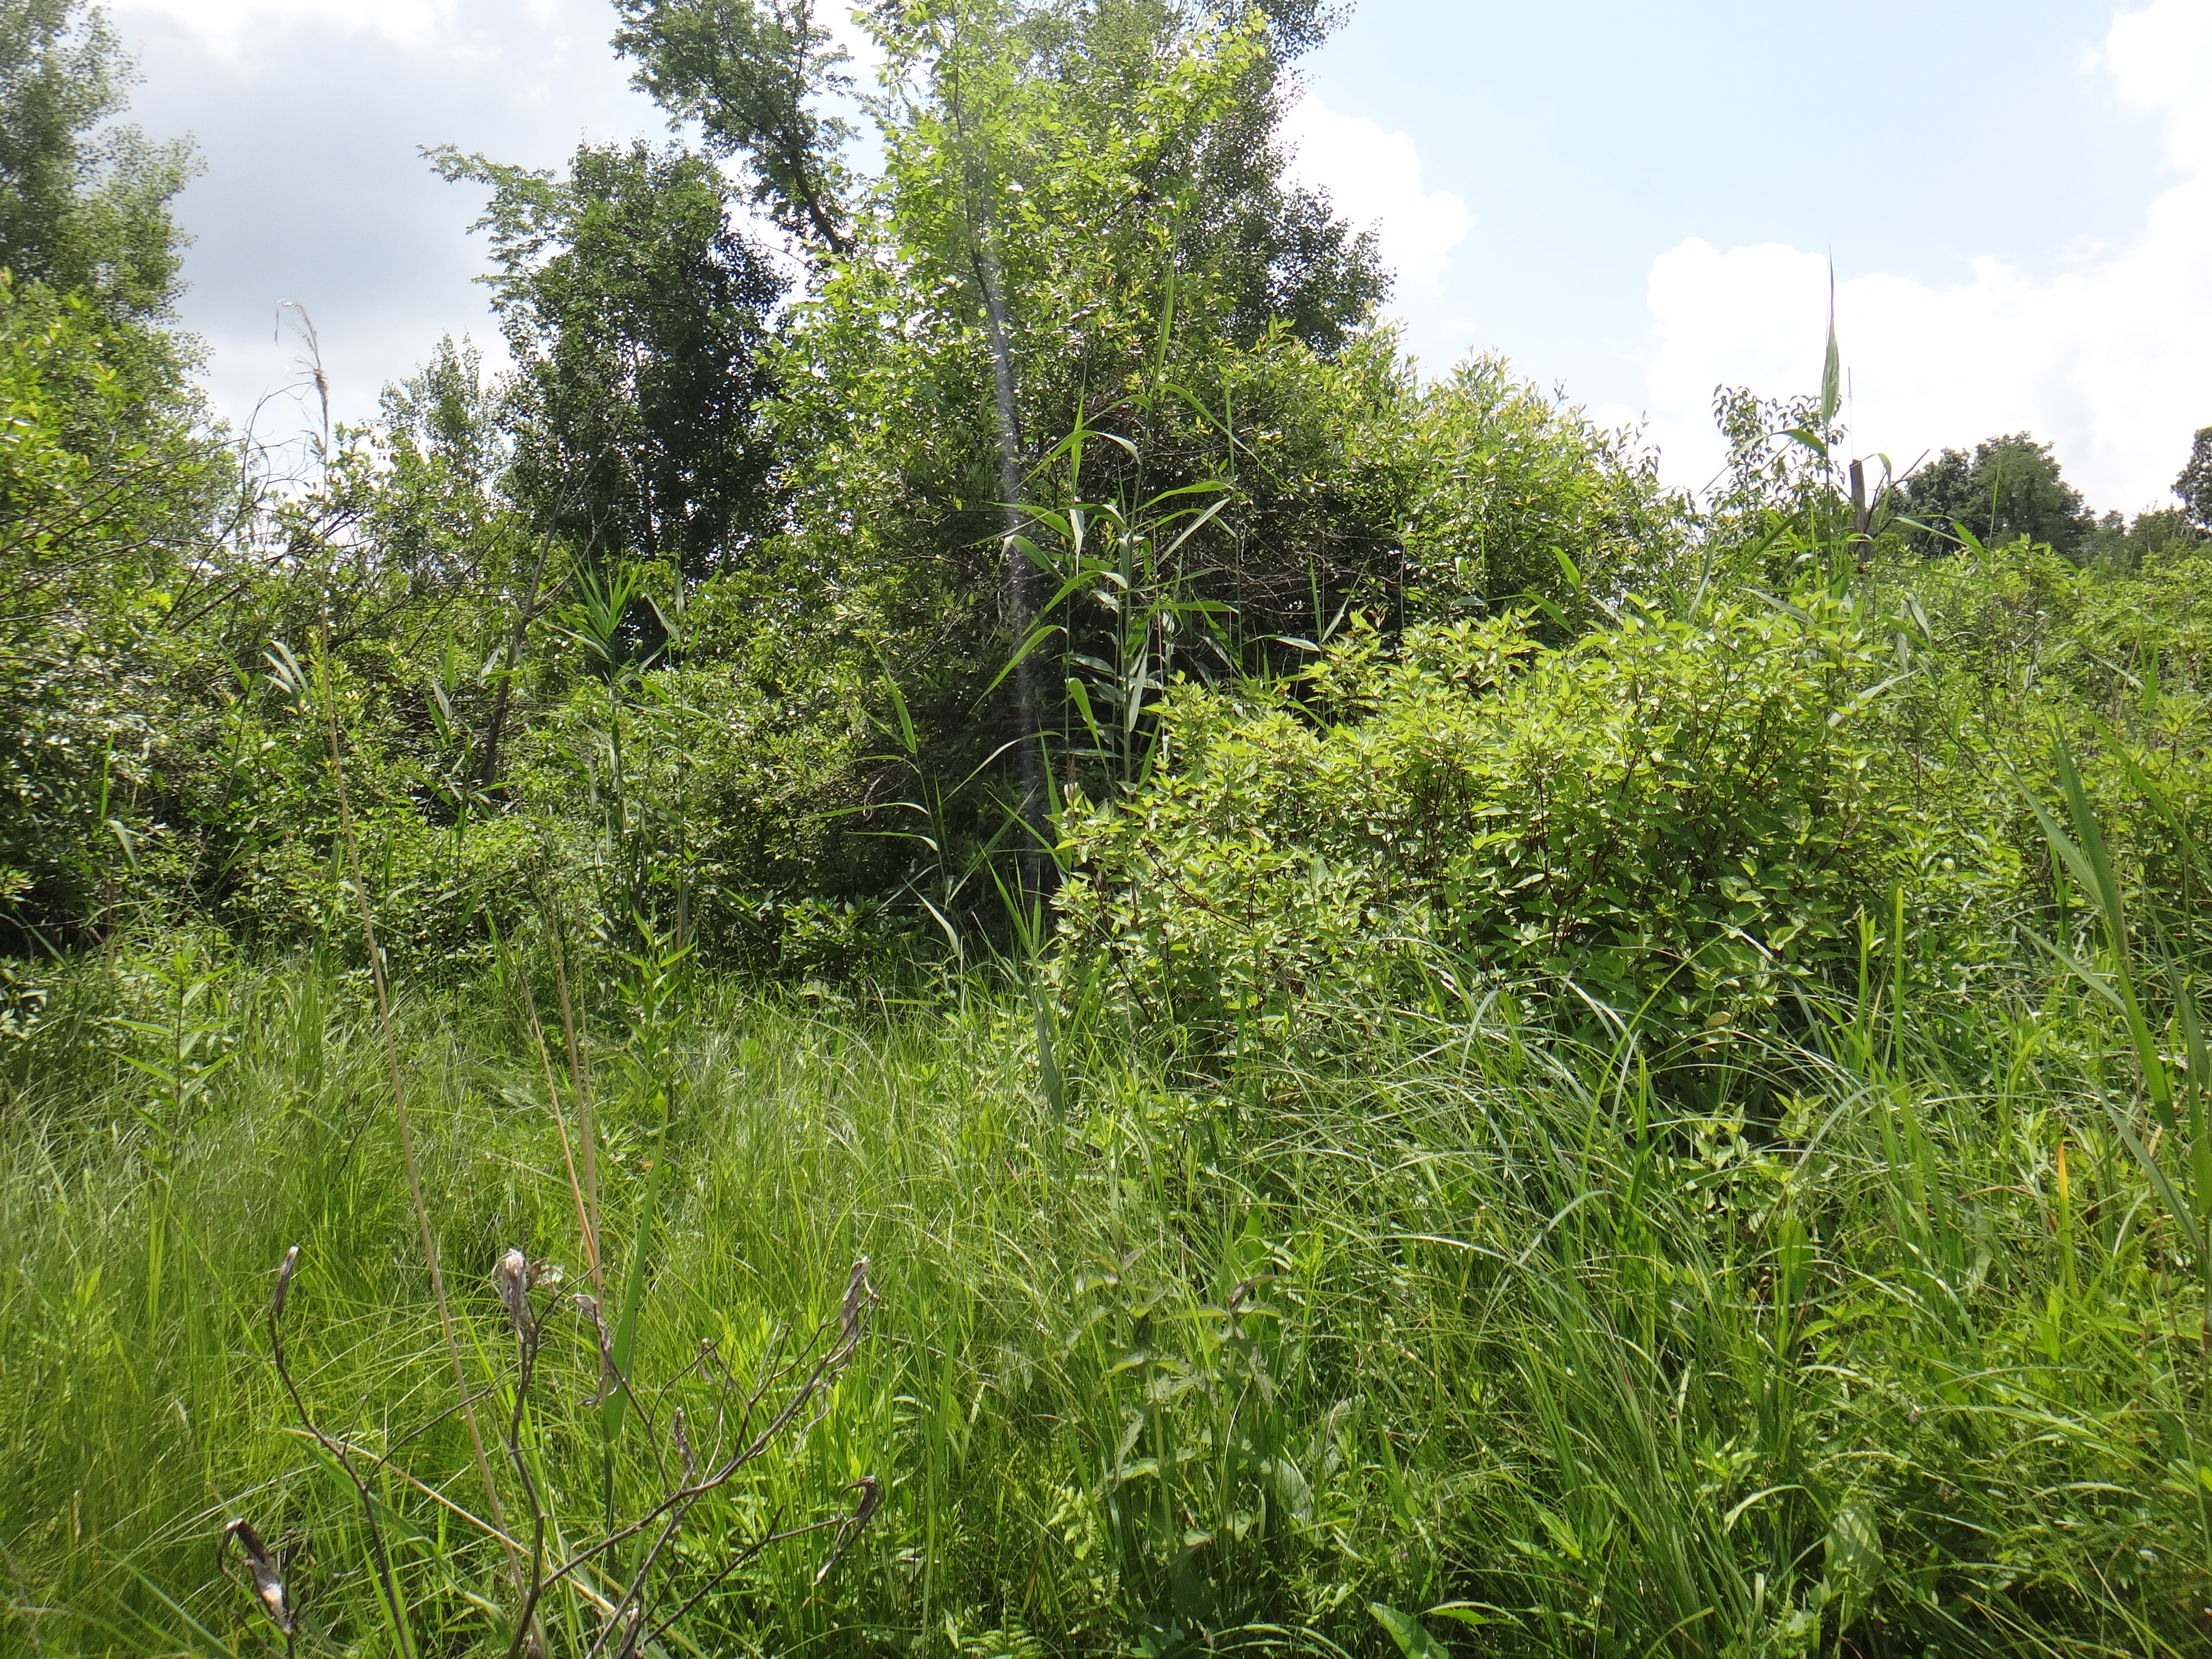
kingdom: Plantae
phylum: Tracheophyta
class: Liliopsida
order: Poales
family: Cyperaceae
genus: Carex
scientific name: Carex prairea
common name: Prairie sedge
